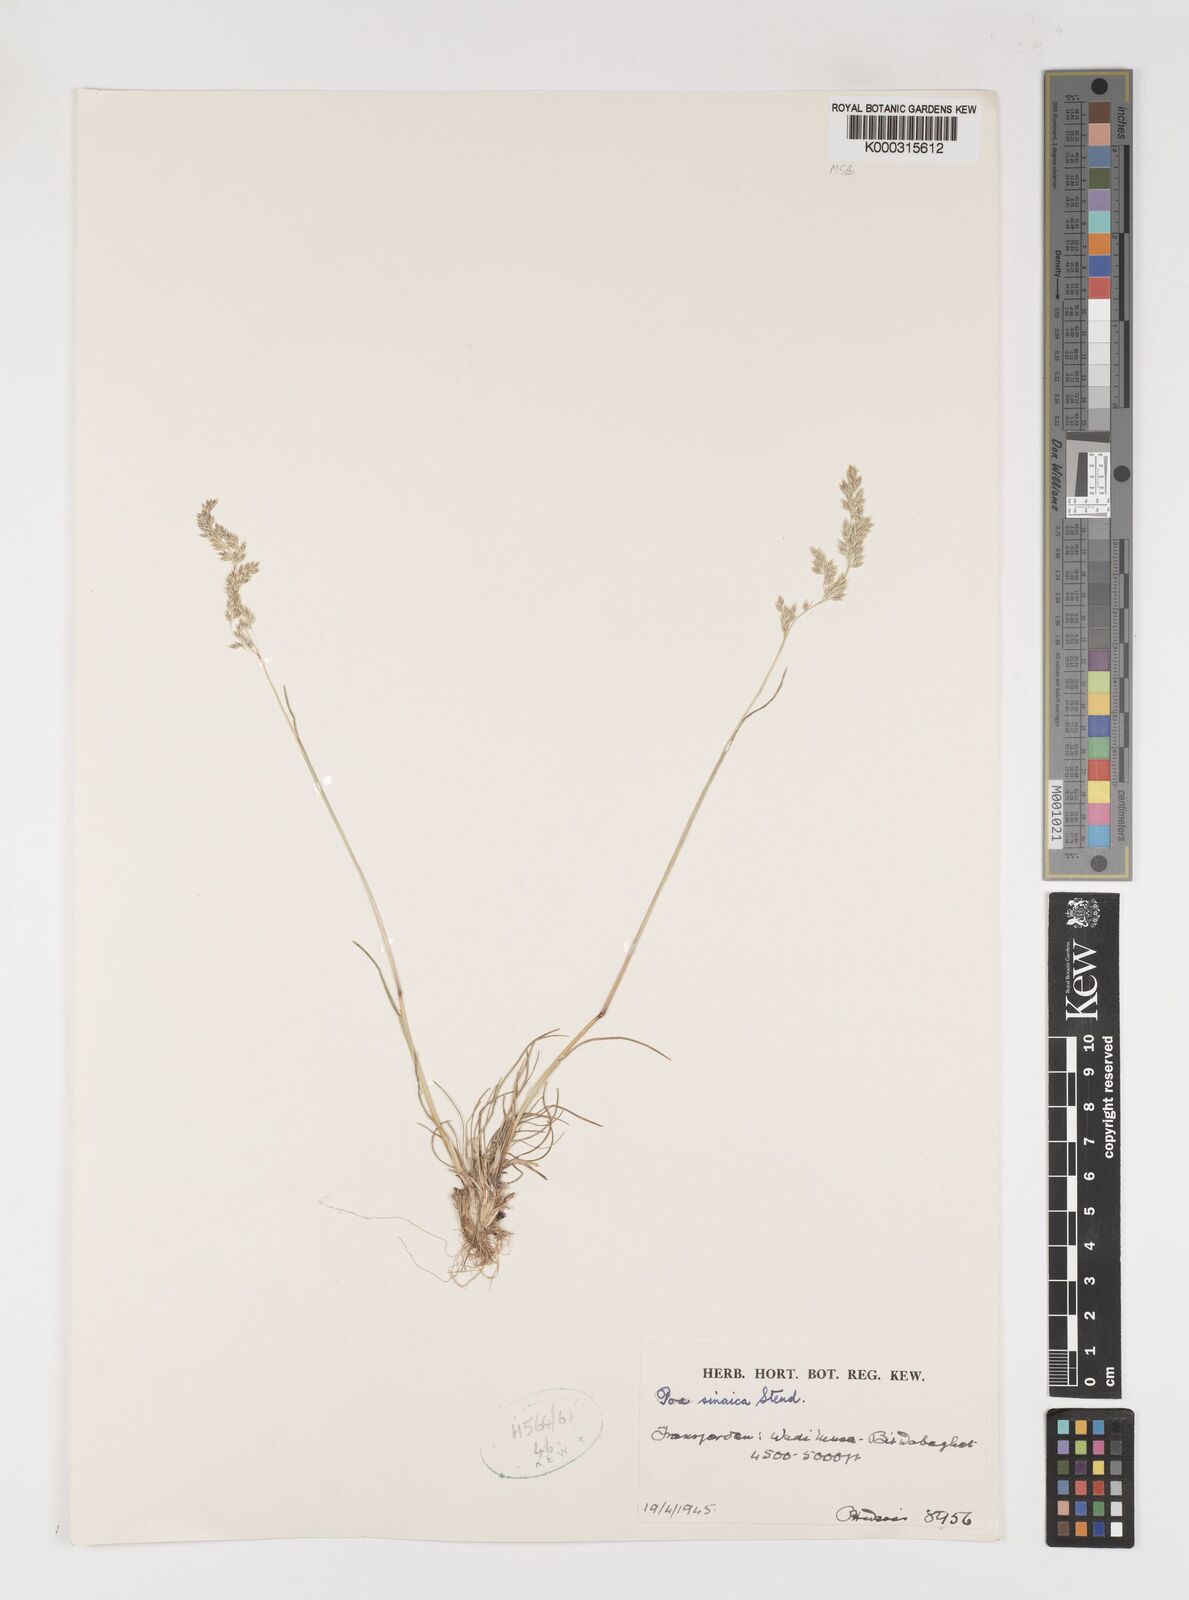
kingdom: Plantae
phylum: Tracheophyta
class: Liliopsida
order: Poales
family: Poaceae
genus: Poa
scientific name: Poa sinaica
